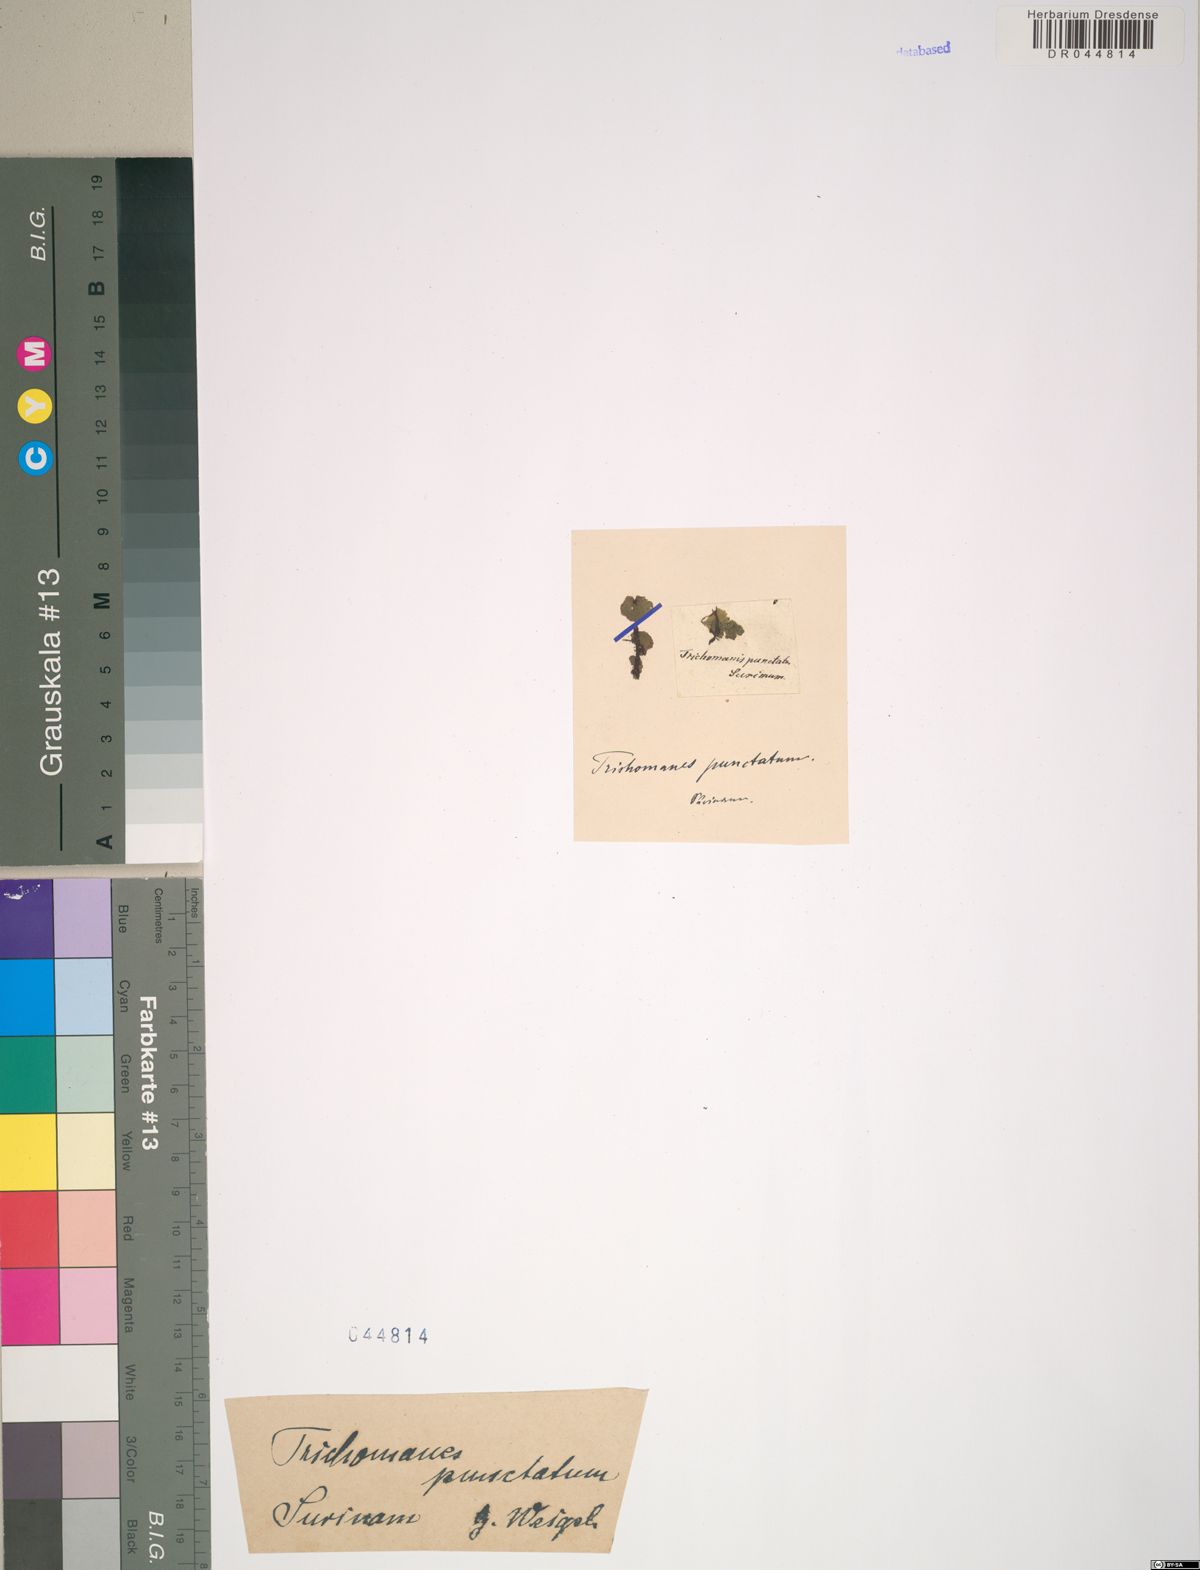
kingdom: Plantae
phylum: Tracheophyta
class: Polypodiopsida
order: Hymenophyllales
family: Hymenophyllaceae
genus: Didymoglossum
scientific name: Didymoglossum punctatum
